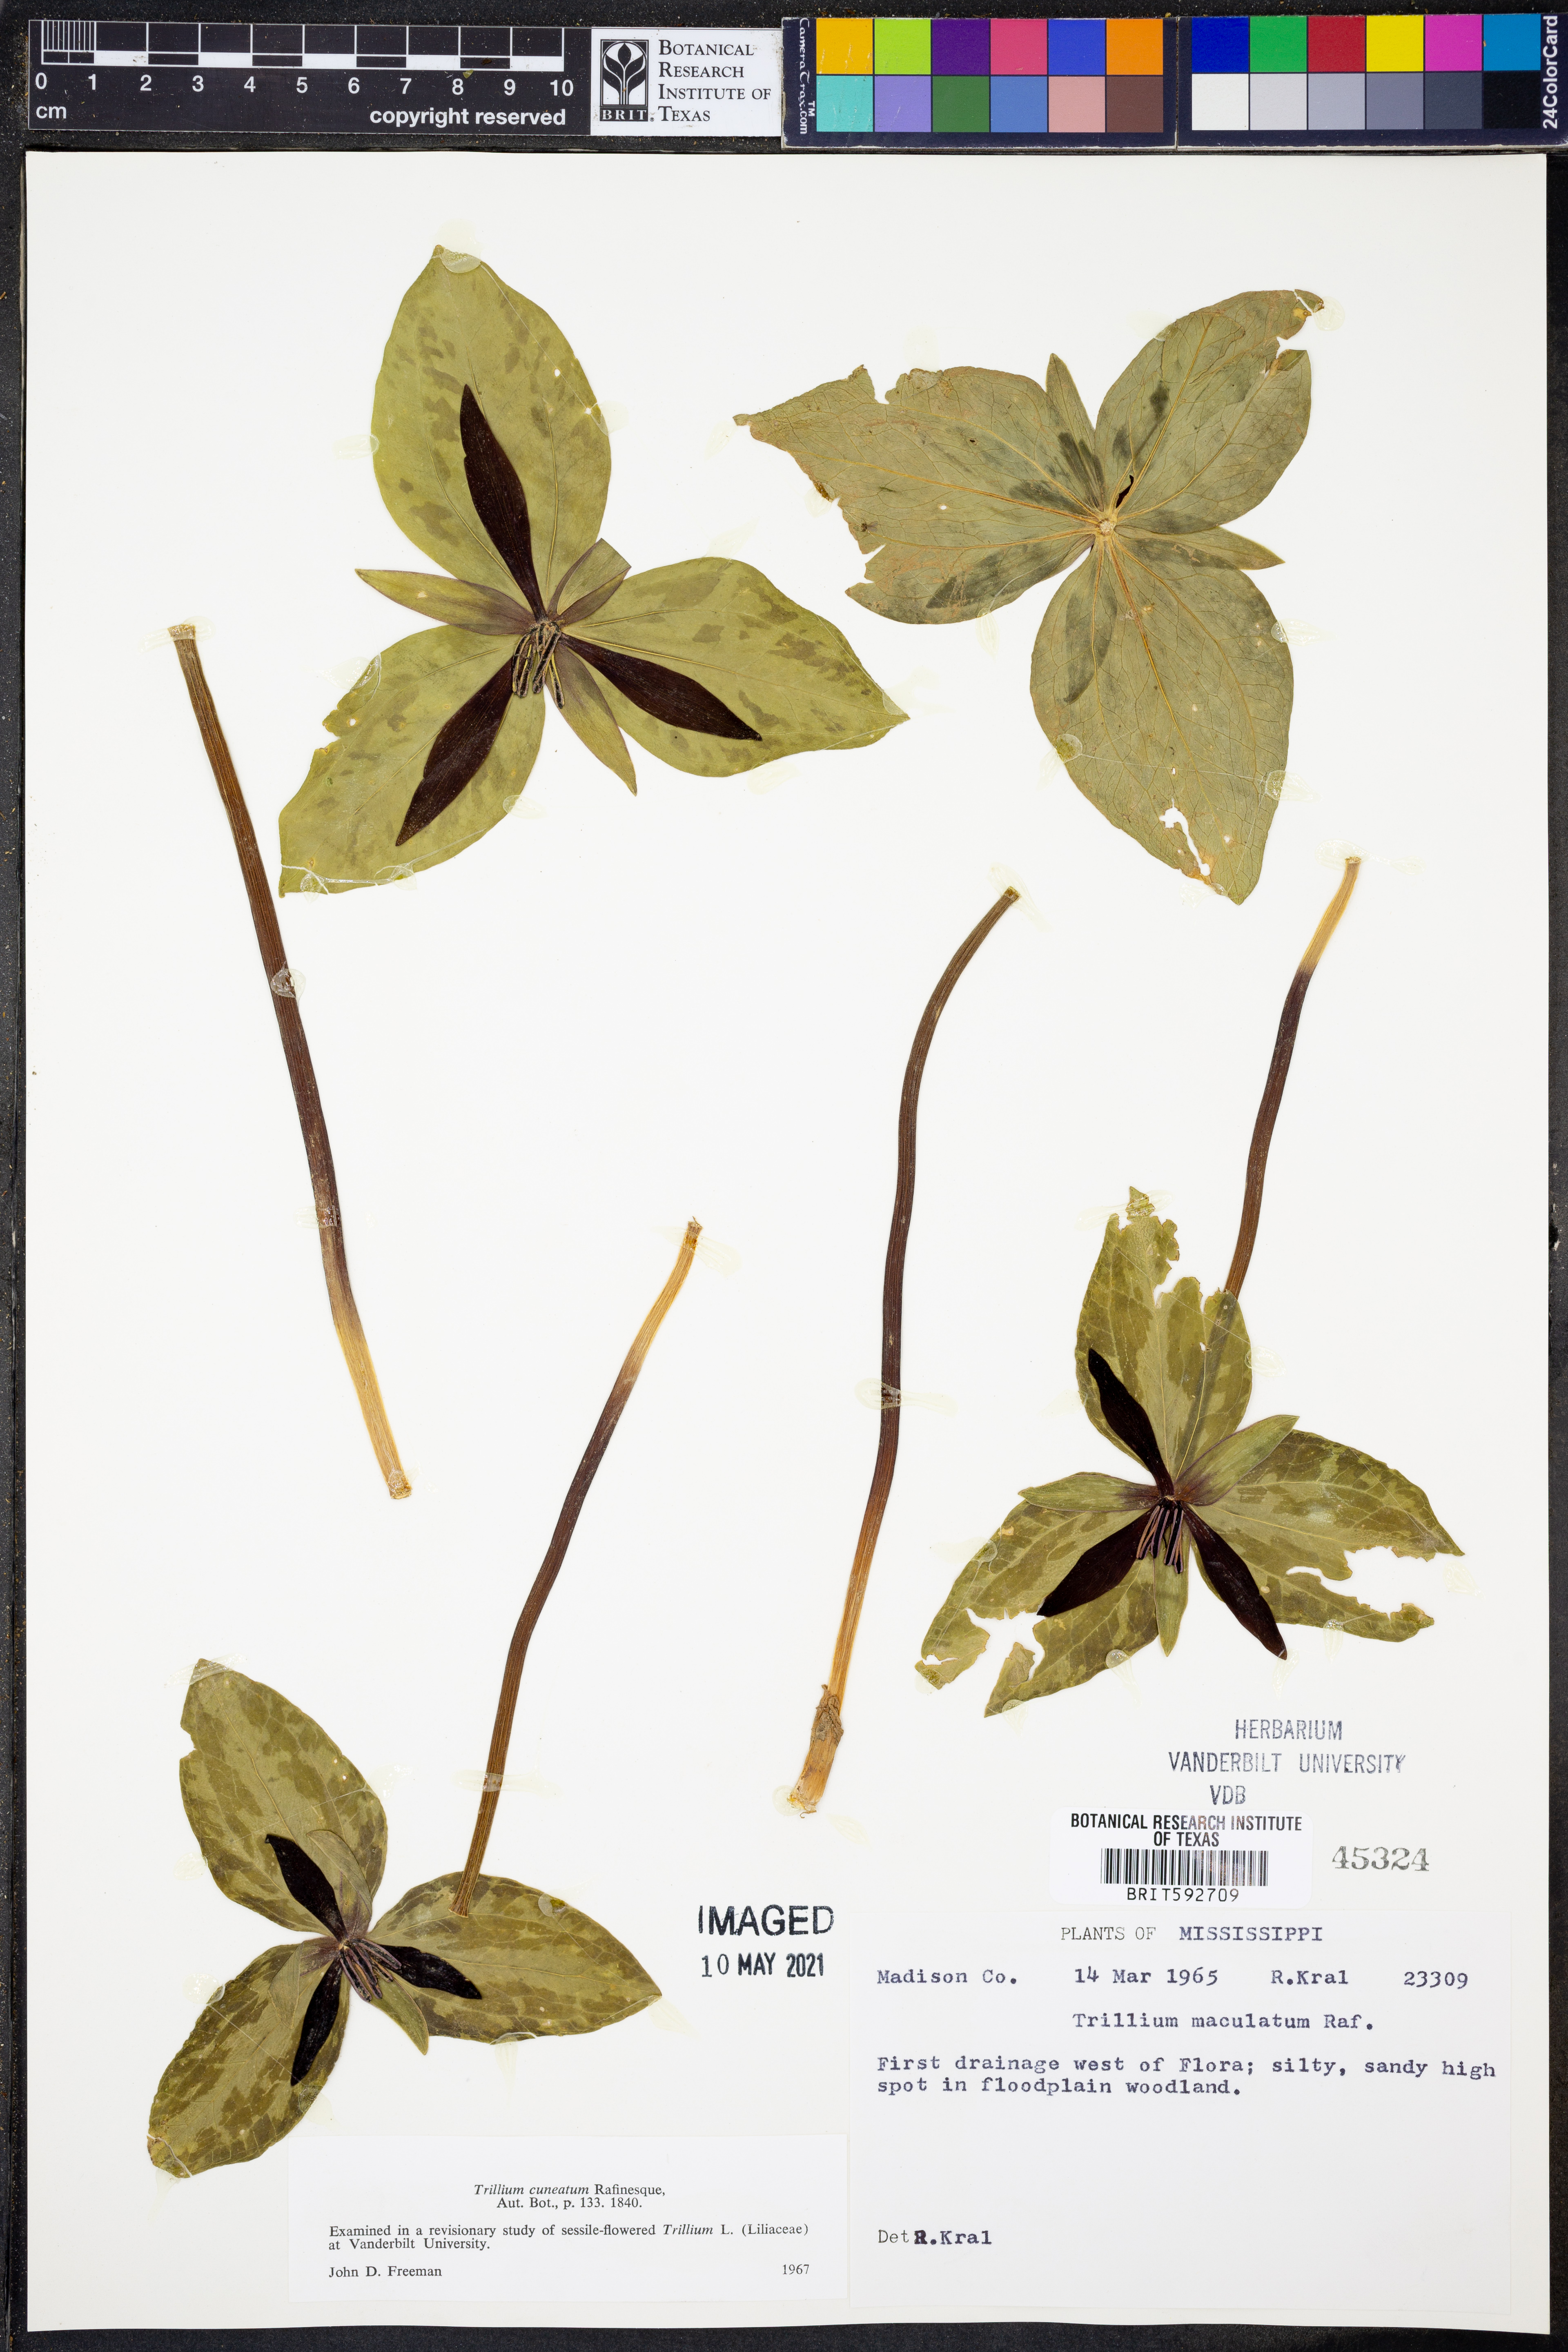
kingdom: Plantae
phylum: Tracheophyta
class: Liliopsida
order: Liliales
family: Melanthiaceae
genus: Trillium
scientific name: Trillium cuneatum
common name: Cuneate trillium
